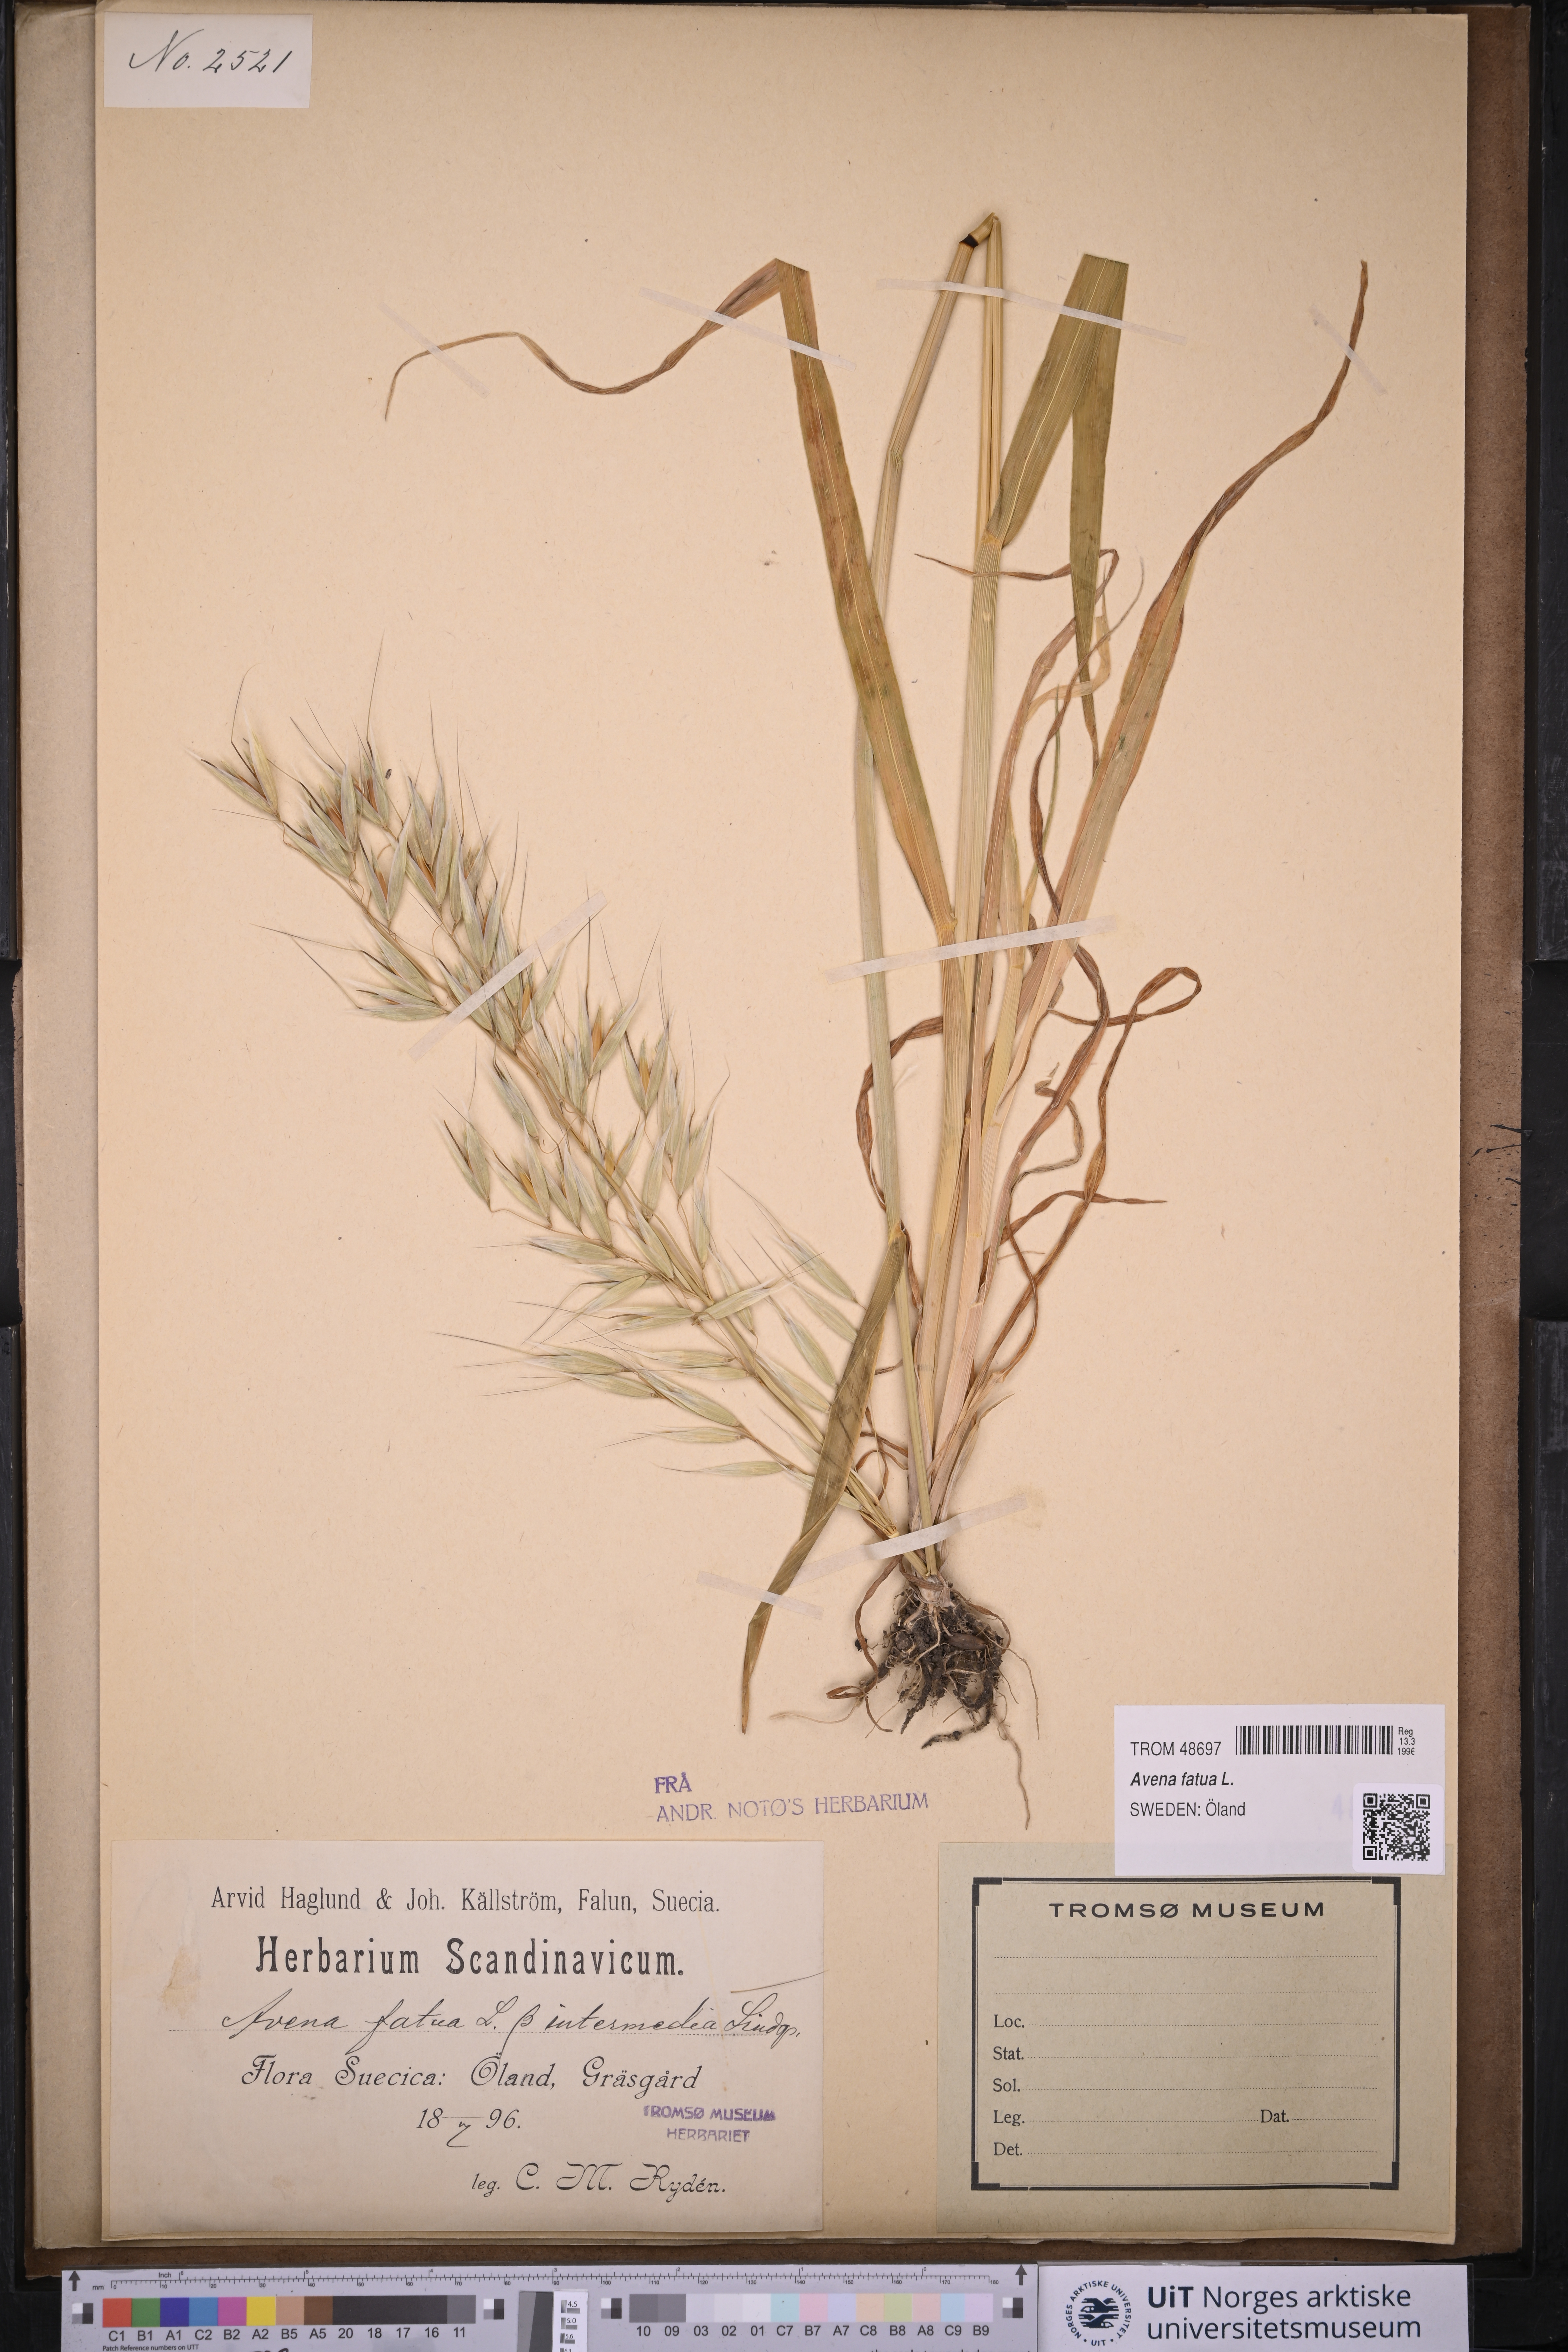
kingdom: Plantae
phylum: Tracheophyta
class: Liliopsida
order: Poales
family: Poaceae
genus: Avena
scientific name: Avena fatua
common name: Wild oat
